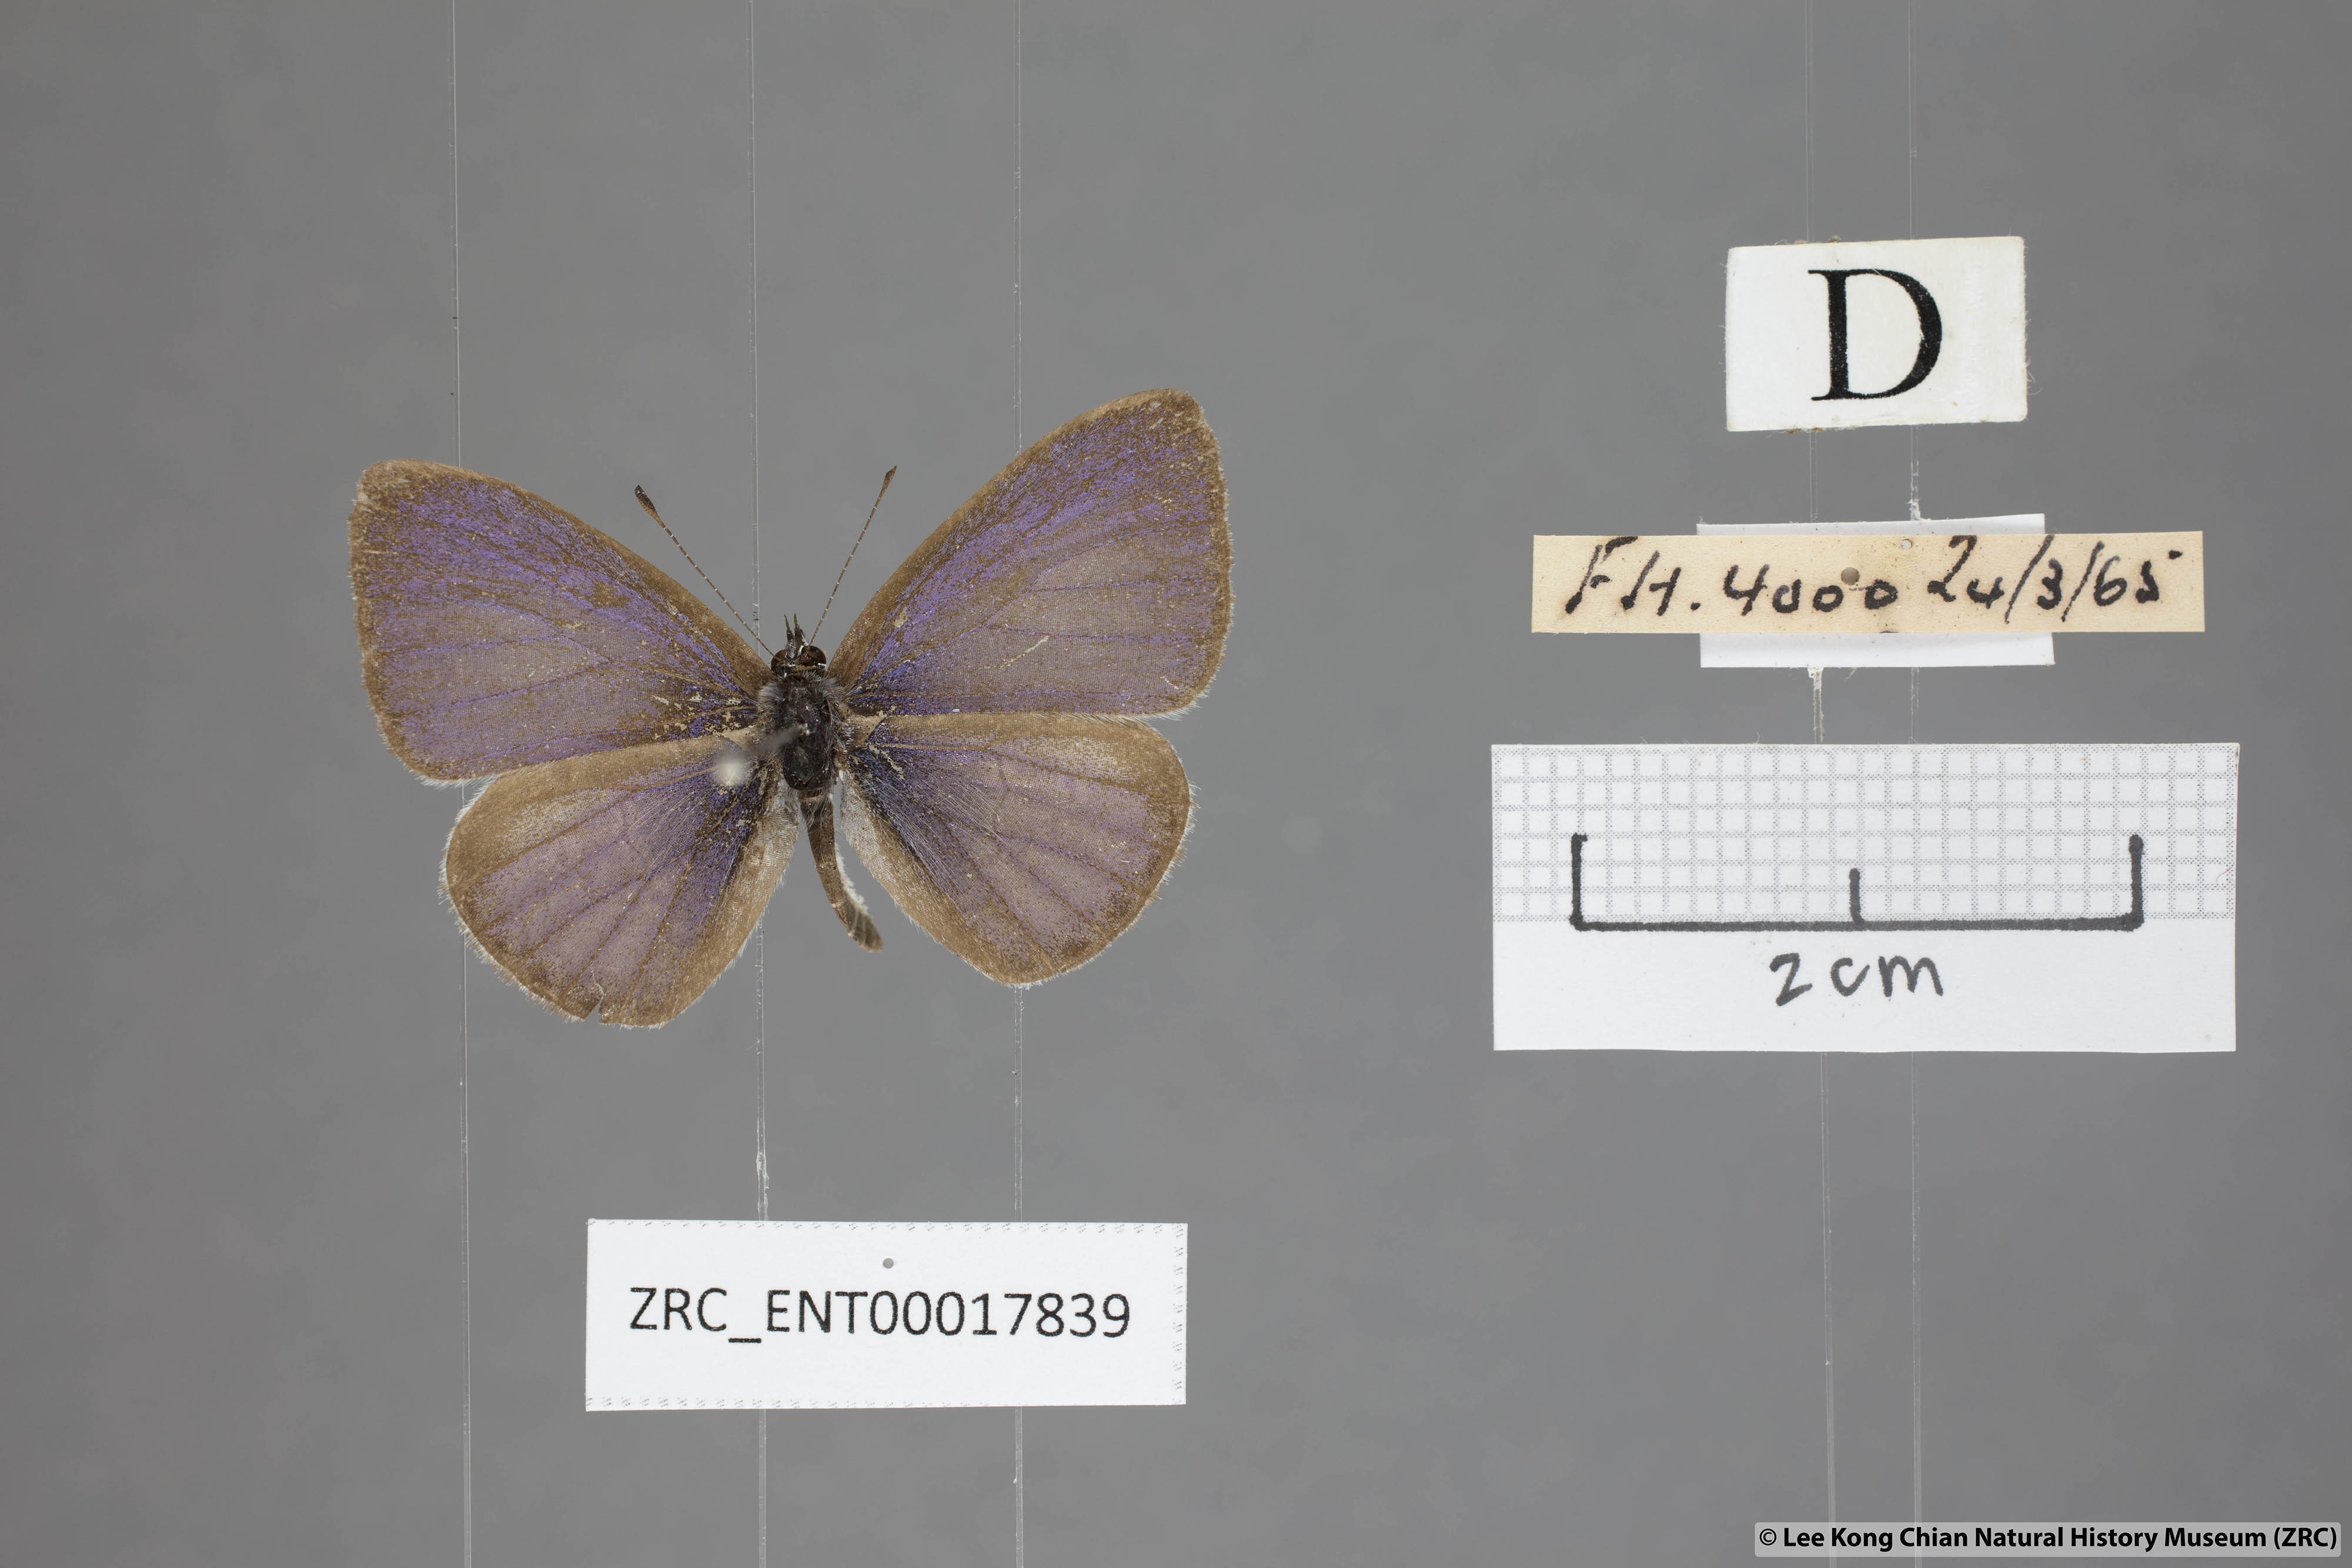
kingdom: Animalia
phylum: Arthropoda
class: Insecta
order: Lepidoptera
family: Lycaenidae
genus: Udara
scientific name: Udara
